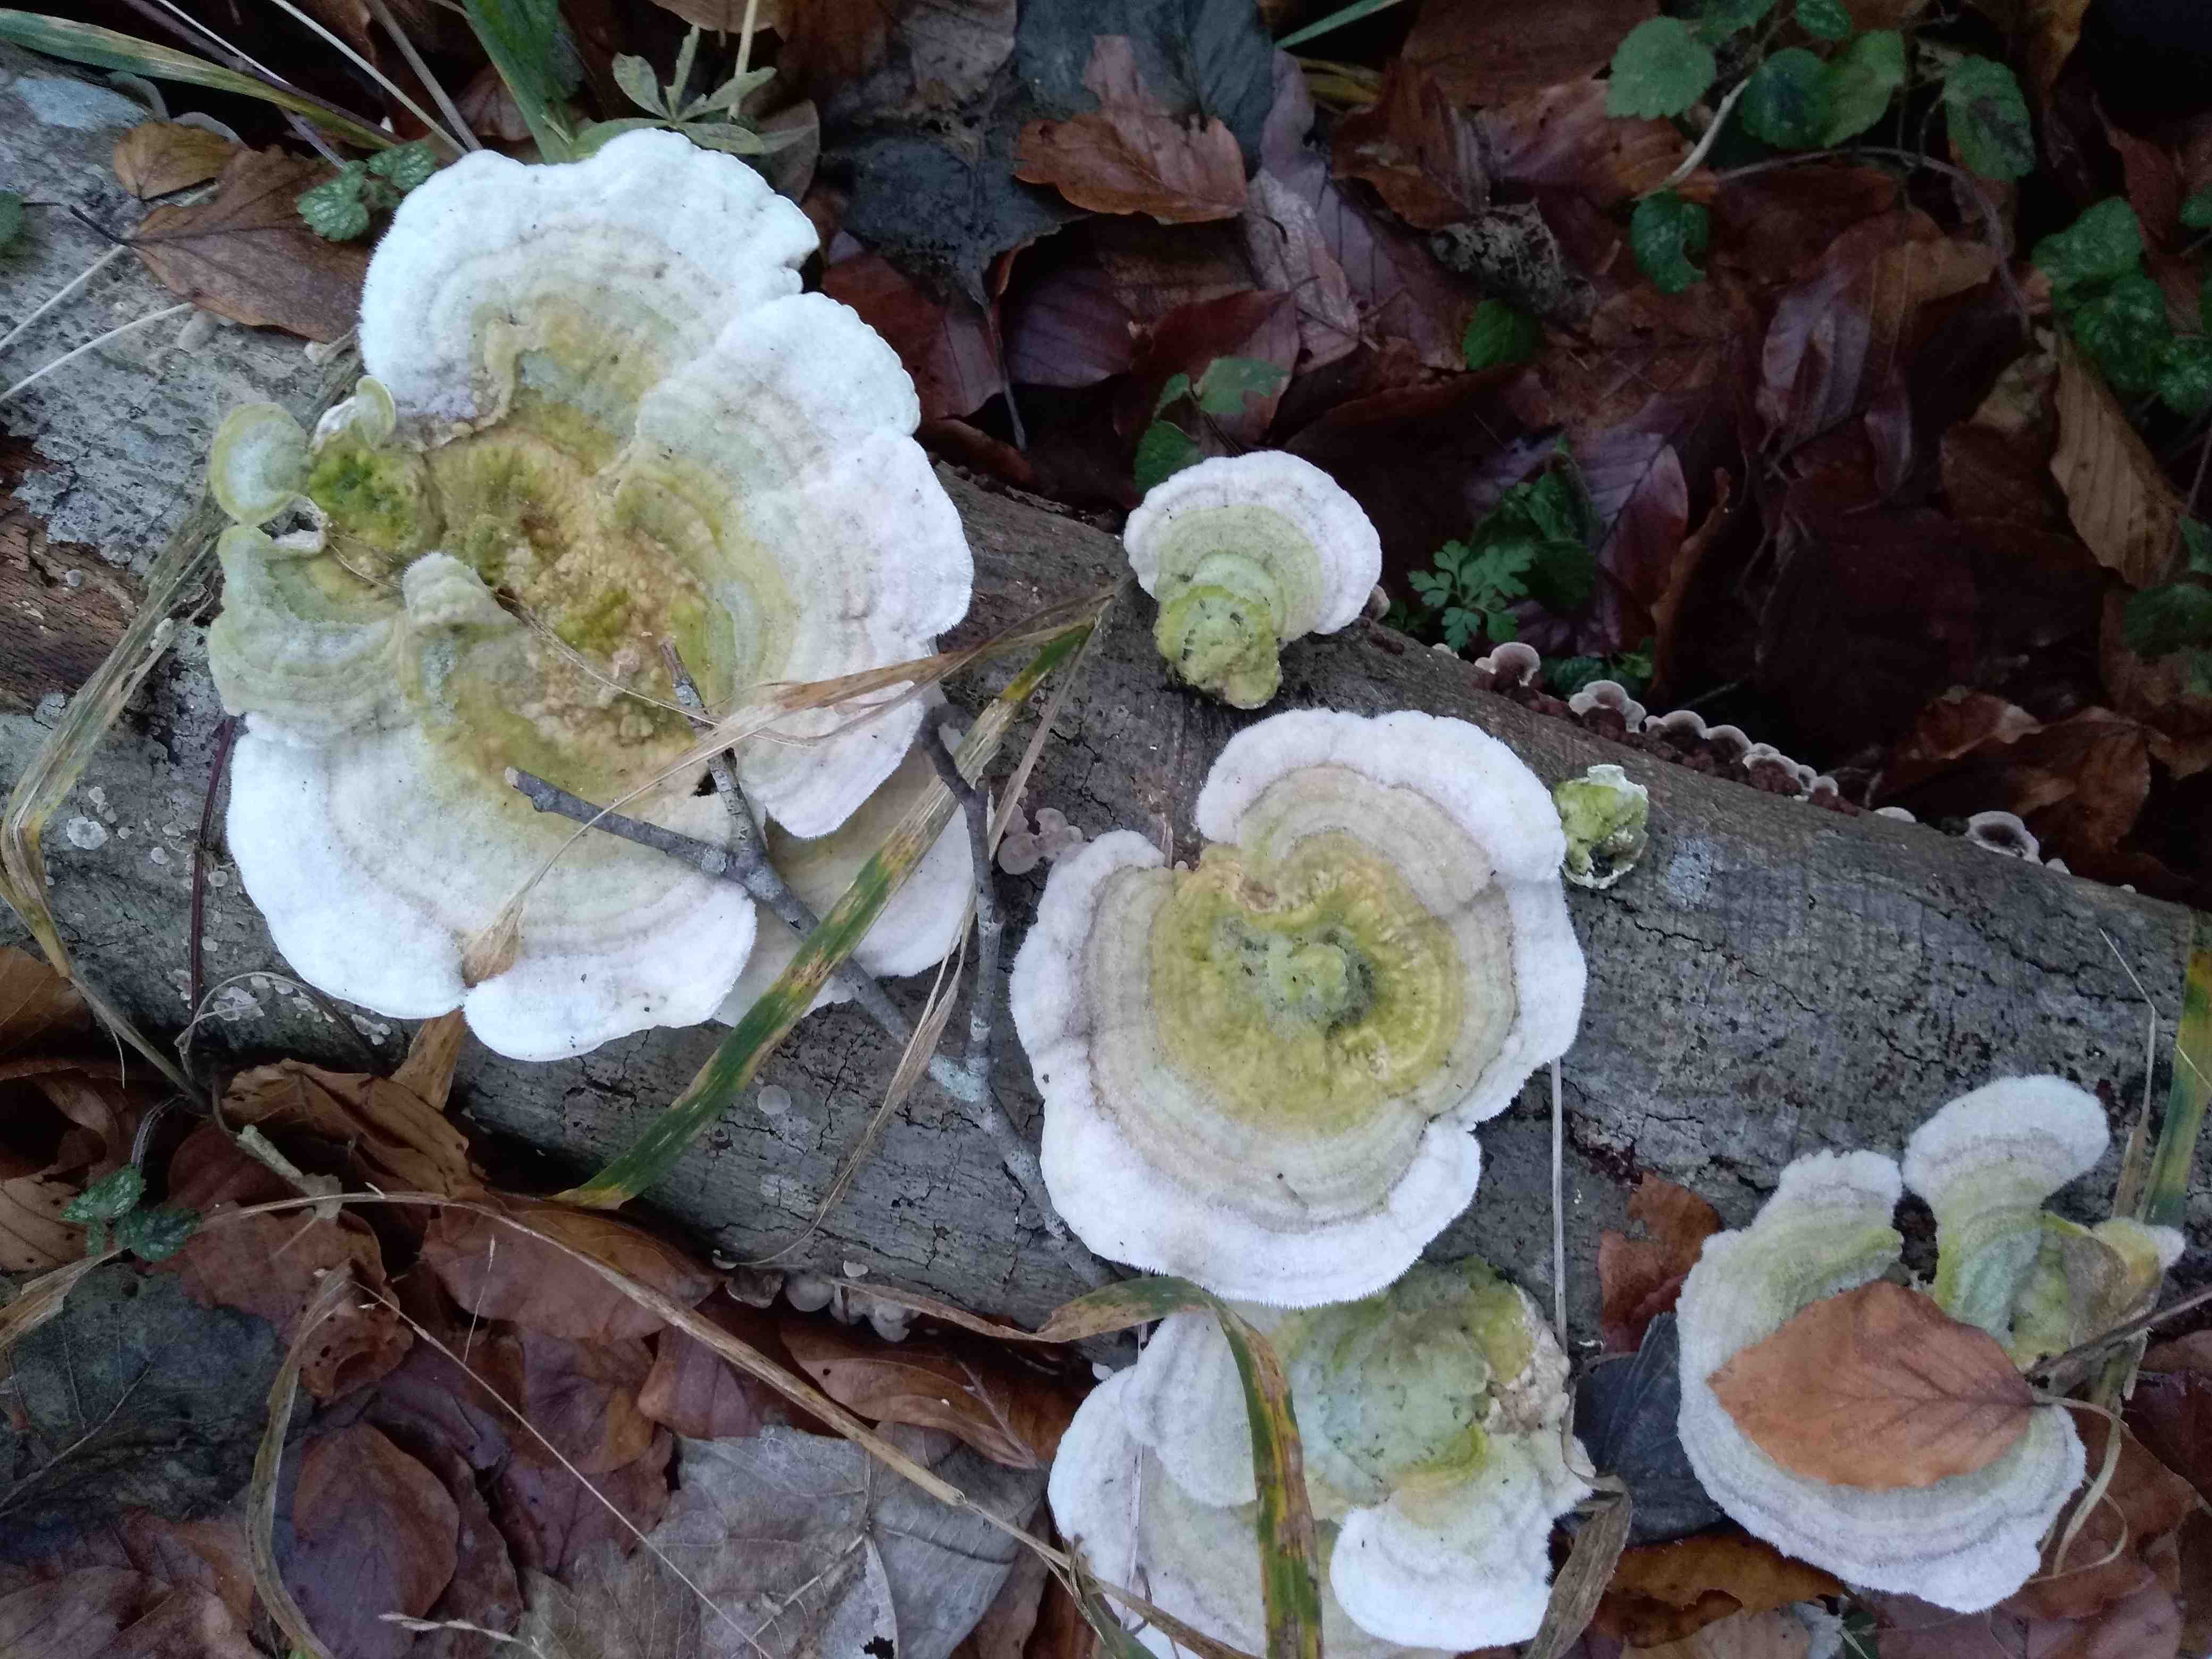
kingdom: Fungi
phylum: Basidiomycota
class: Agaricomycetes
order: Polyporales
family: Polyporaceae
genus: Trametes
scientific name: Trametes hirsuta
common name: håret læderporesvamp
